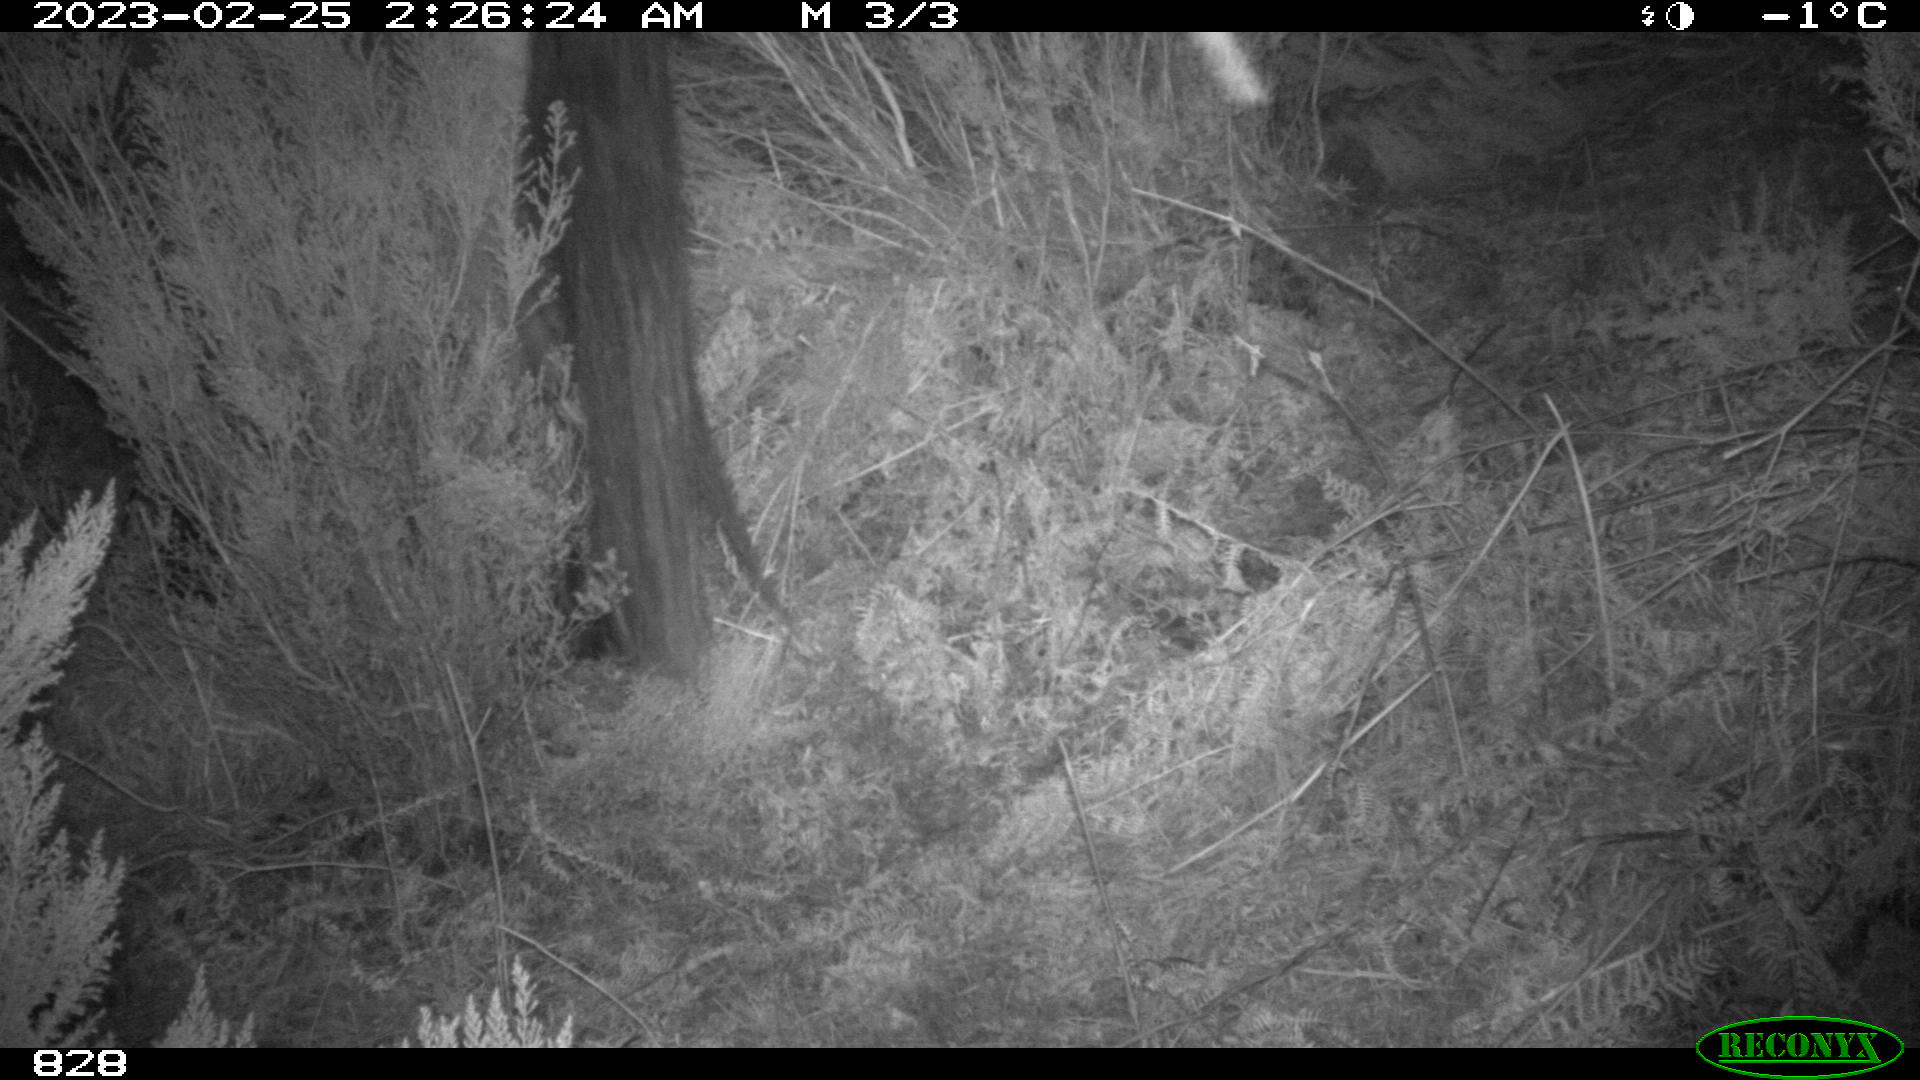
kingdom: Animalia
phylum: Chordata
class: Mammalia
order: Perissodactyla
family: Equidae
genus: Equus
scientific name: Equus caballus
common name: Horse
